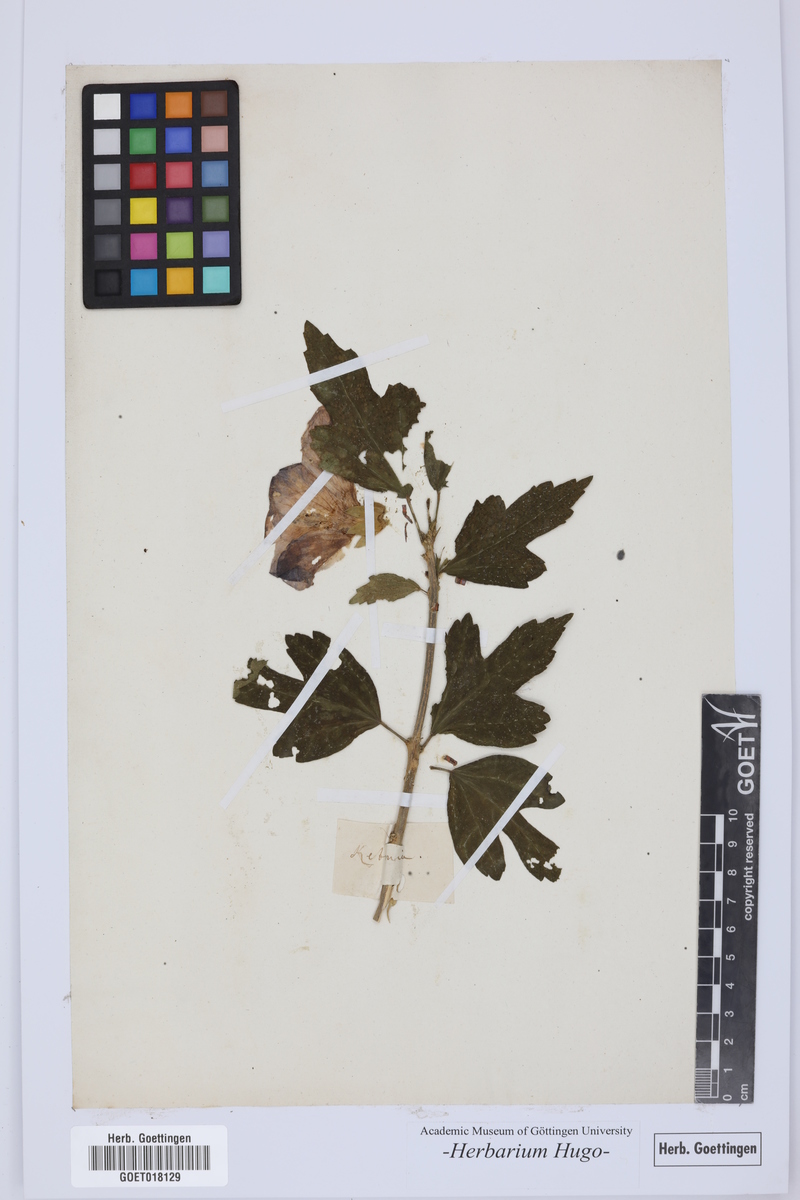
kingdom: Plantae
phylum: Tracheophyta
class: Magnoliopsida
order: Malvales
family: Malvaceae
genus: Hibiscus
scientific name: Hibiscus
